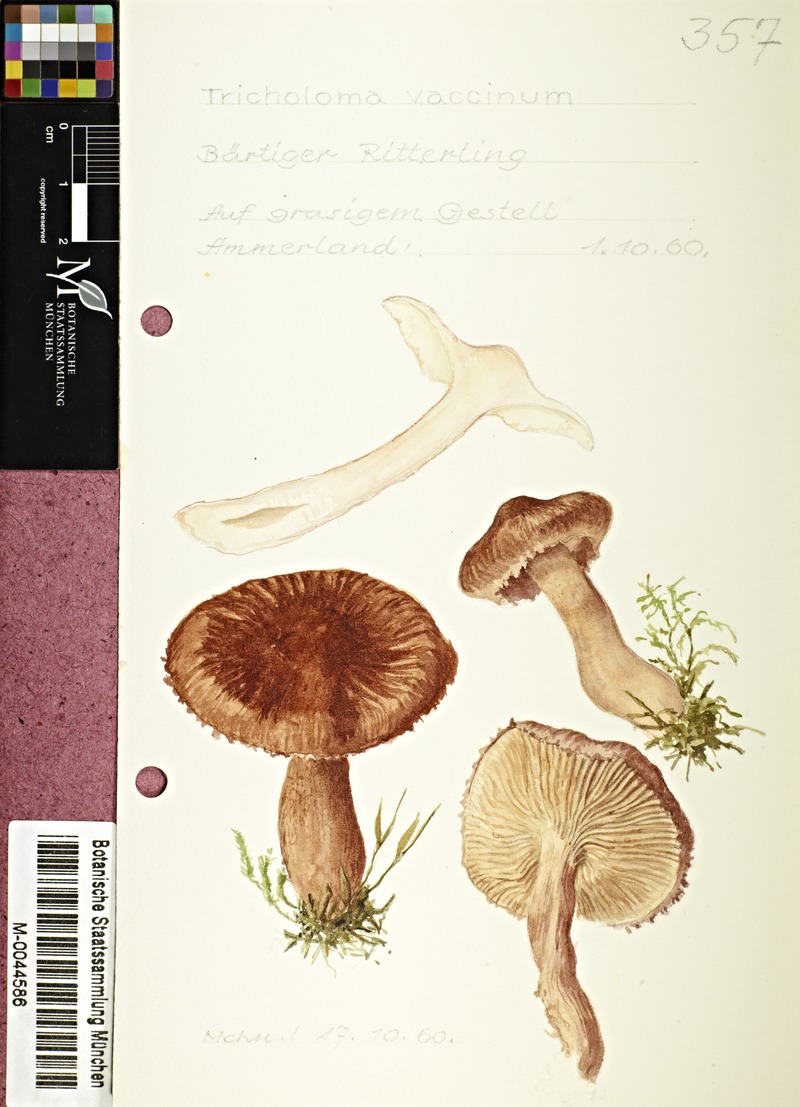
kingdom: Fungi
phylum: Basidiomycota
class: Agaricomycetes
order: Agaricales
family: Tricholomataceae
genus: Tricholoma
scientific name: Tricholoma vaccinum
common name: Scaly knight
